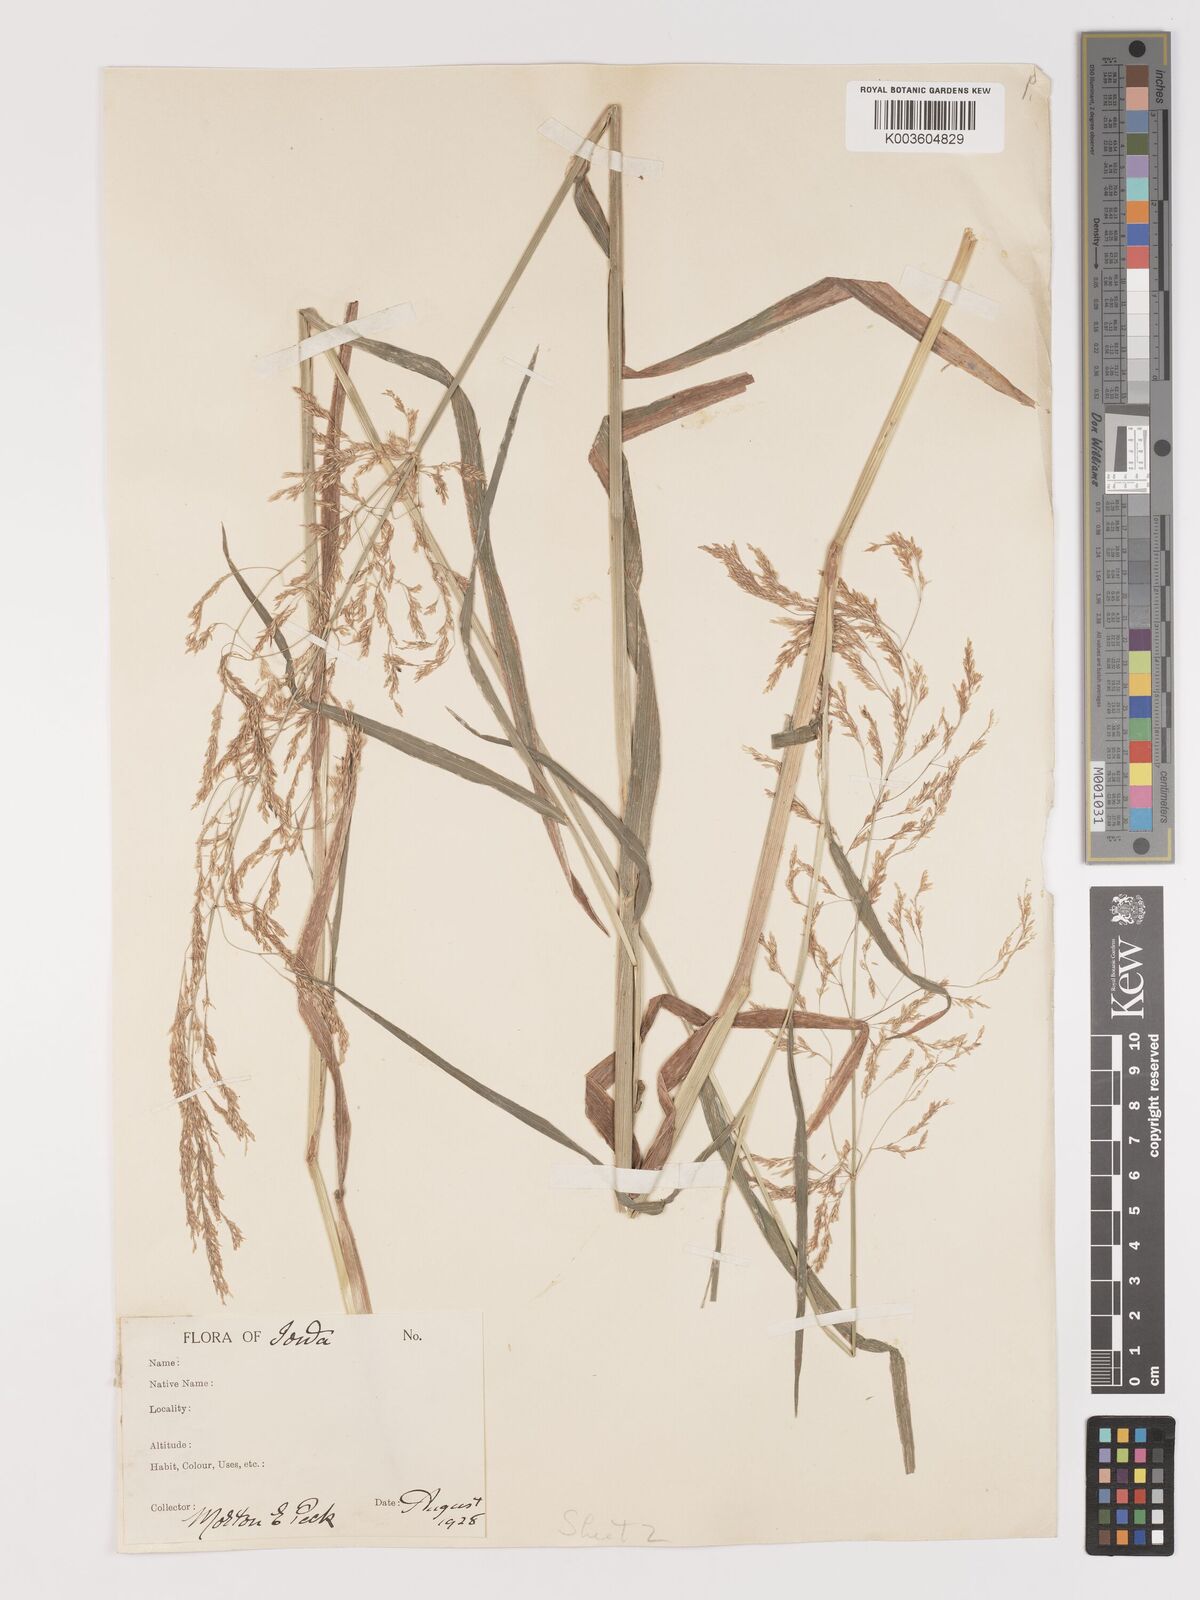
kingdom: Plantae
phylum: Tracheophyta
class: Liliopsida
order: Poales
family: Poaceae
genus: Agrostis
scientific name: Agrostis
